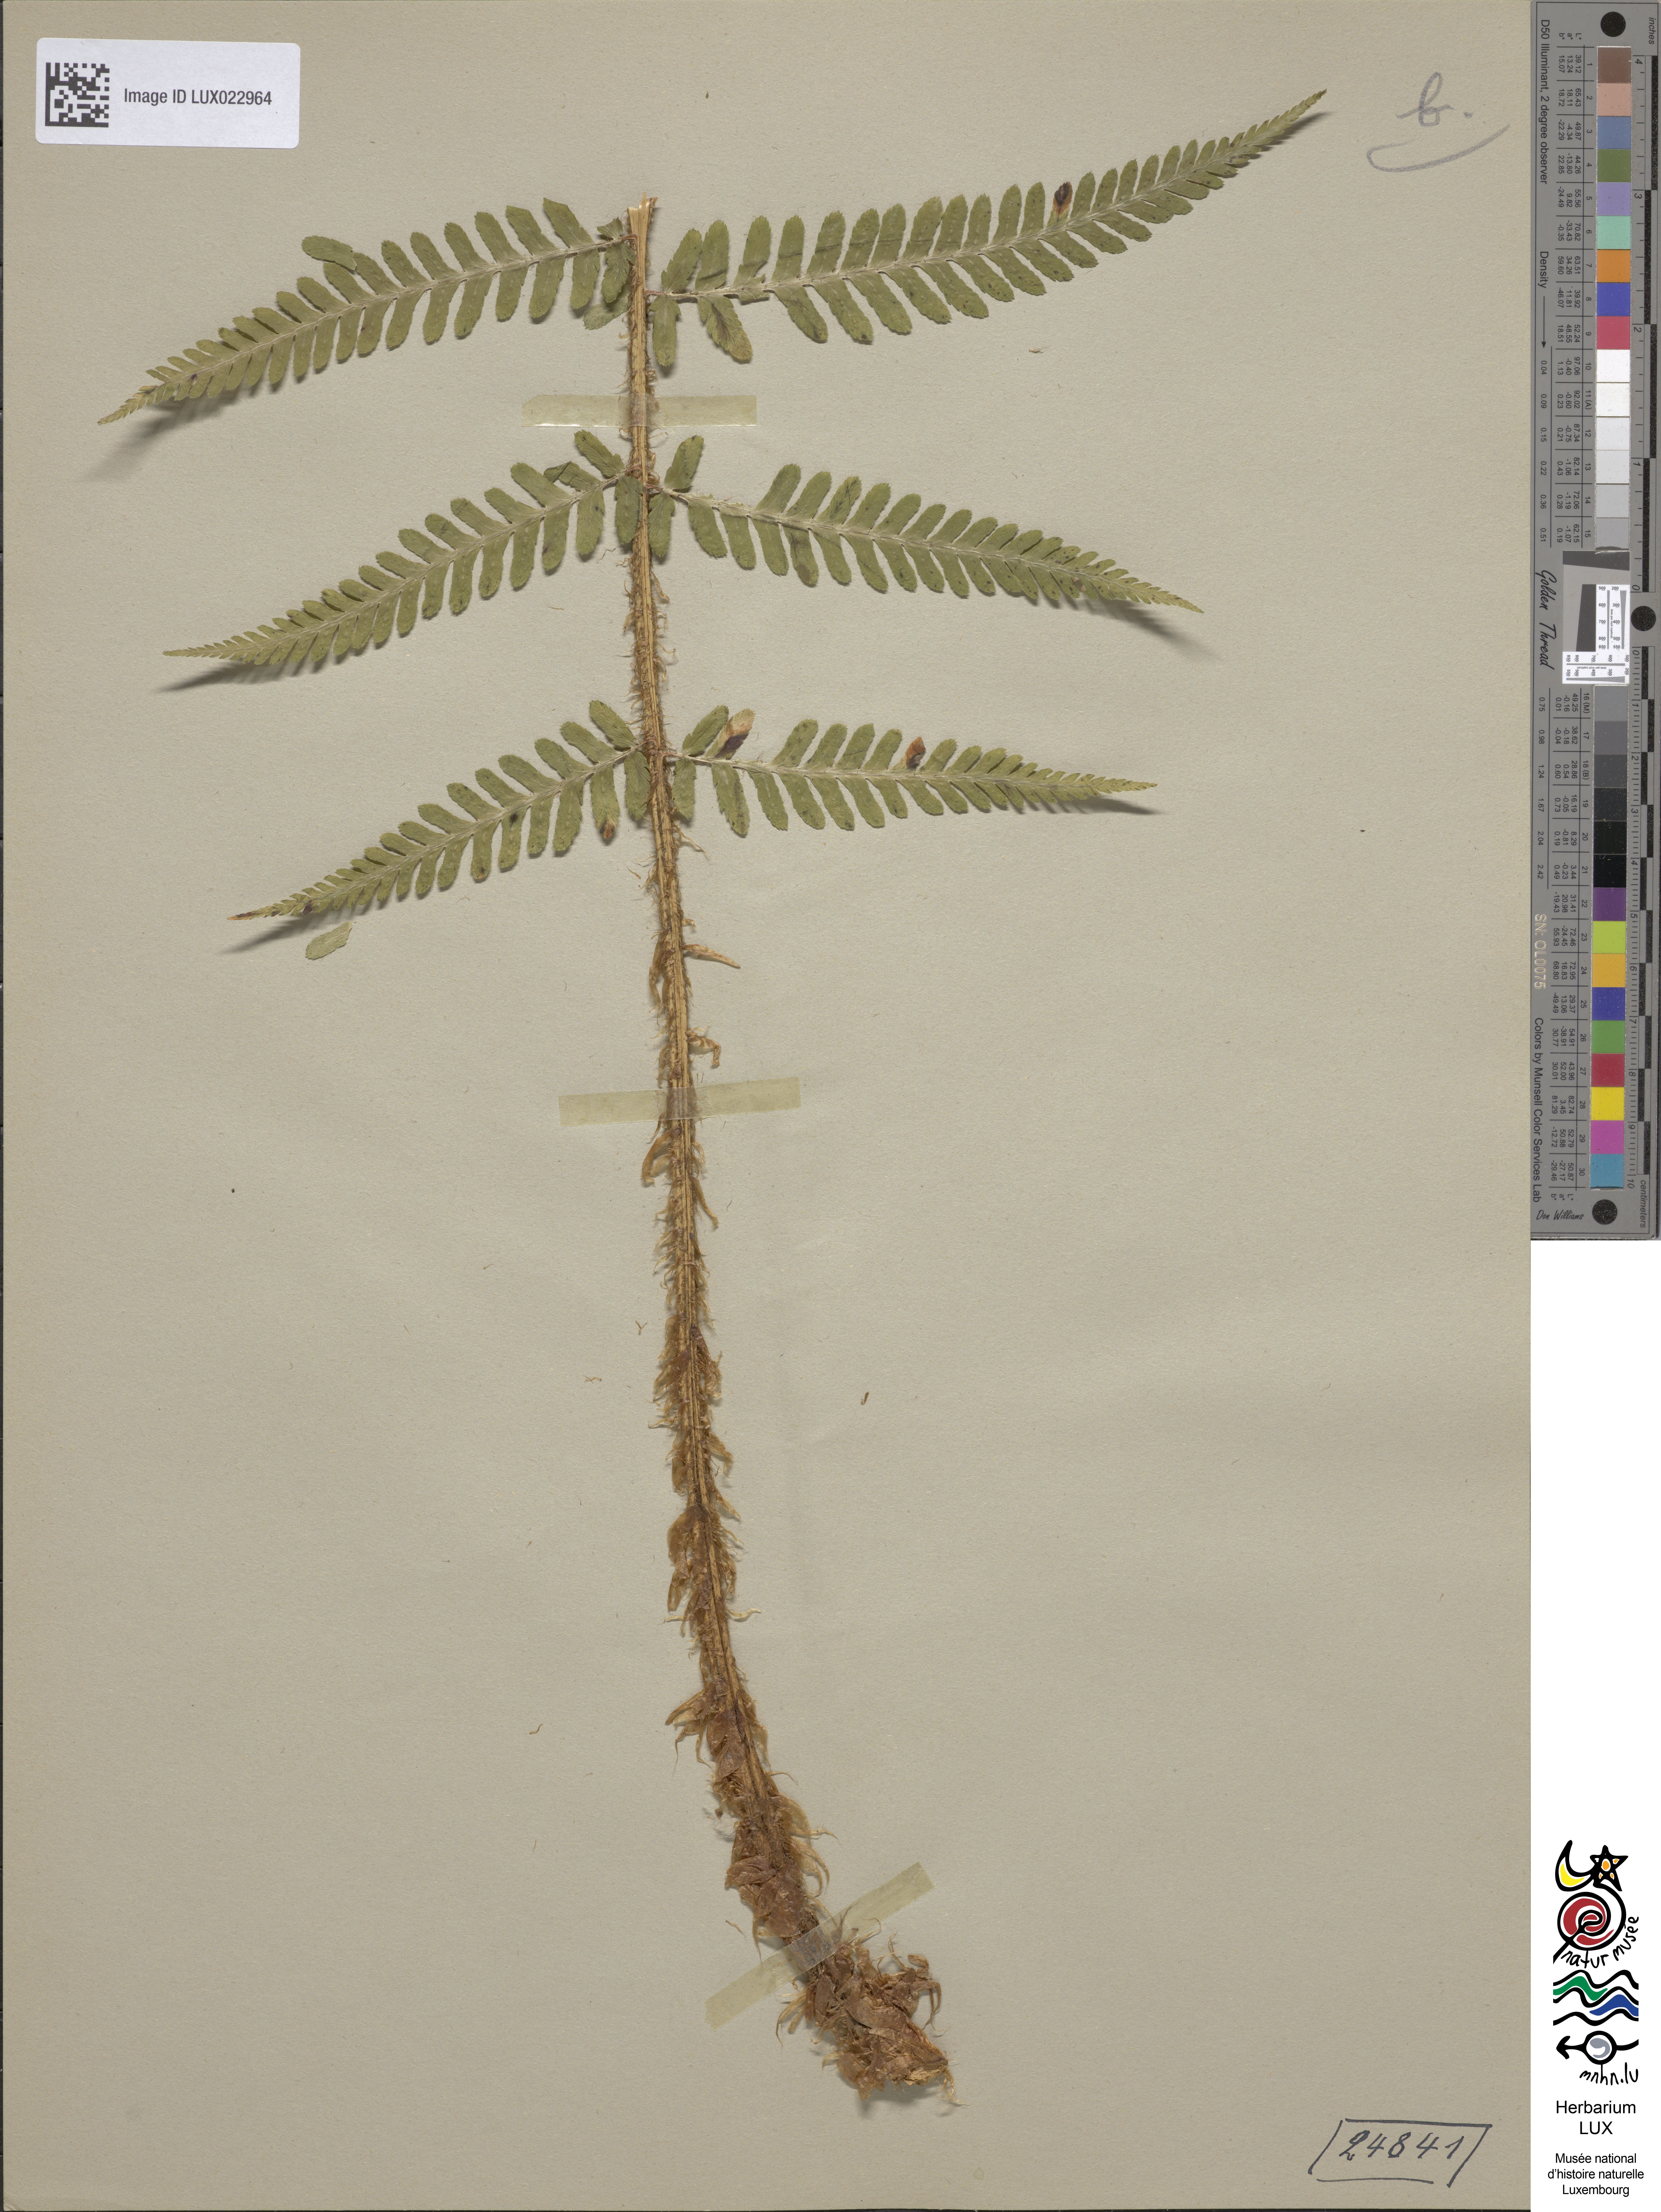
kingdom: Plantae
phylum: Tracheophyta
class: Polypodiopsida
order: Polypodiales
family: Dryopteridaceae
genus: Dryopteris
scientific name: Dryopteris filix-mas
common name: Male fern
